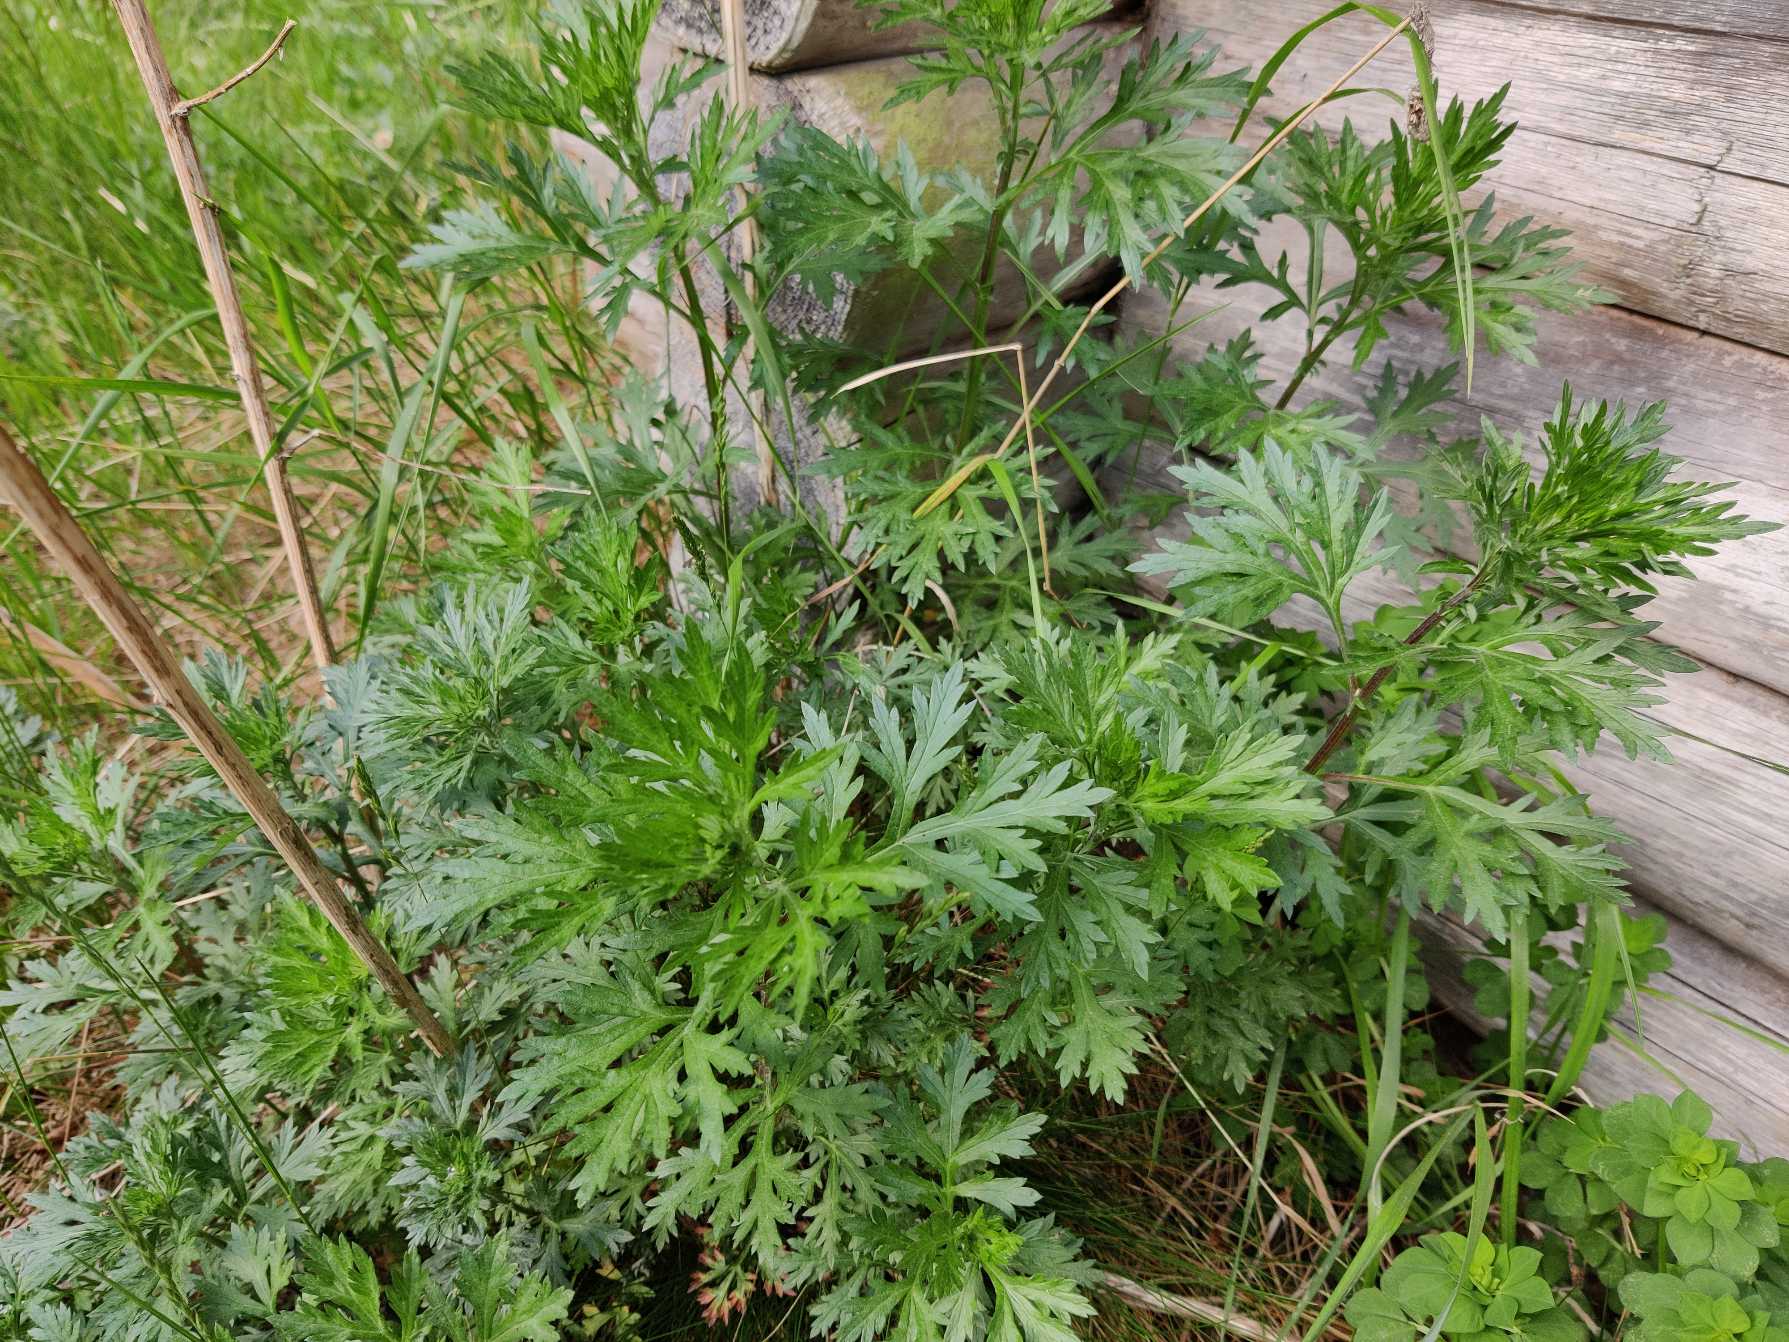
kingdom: Plantae
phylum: Tracheophyta
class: Magnoliopsida
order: Asterales
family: Asteraceae
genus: Artemisia
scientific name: Artemisia vulgaris
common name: Grå-bynke
